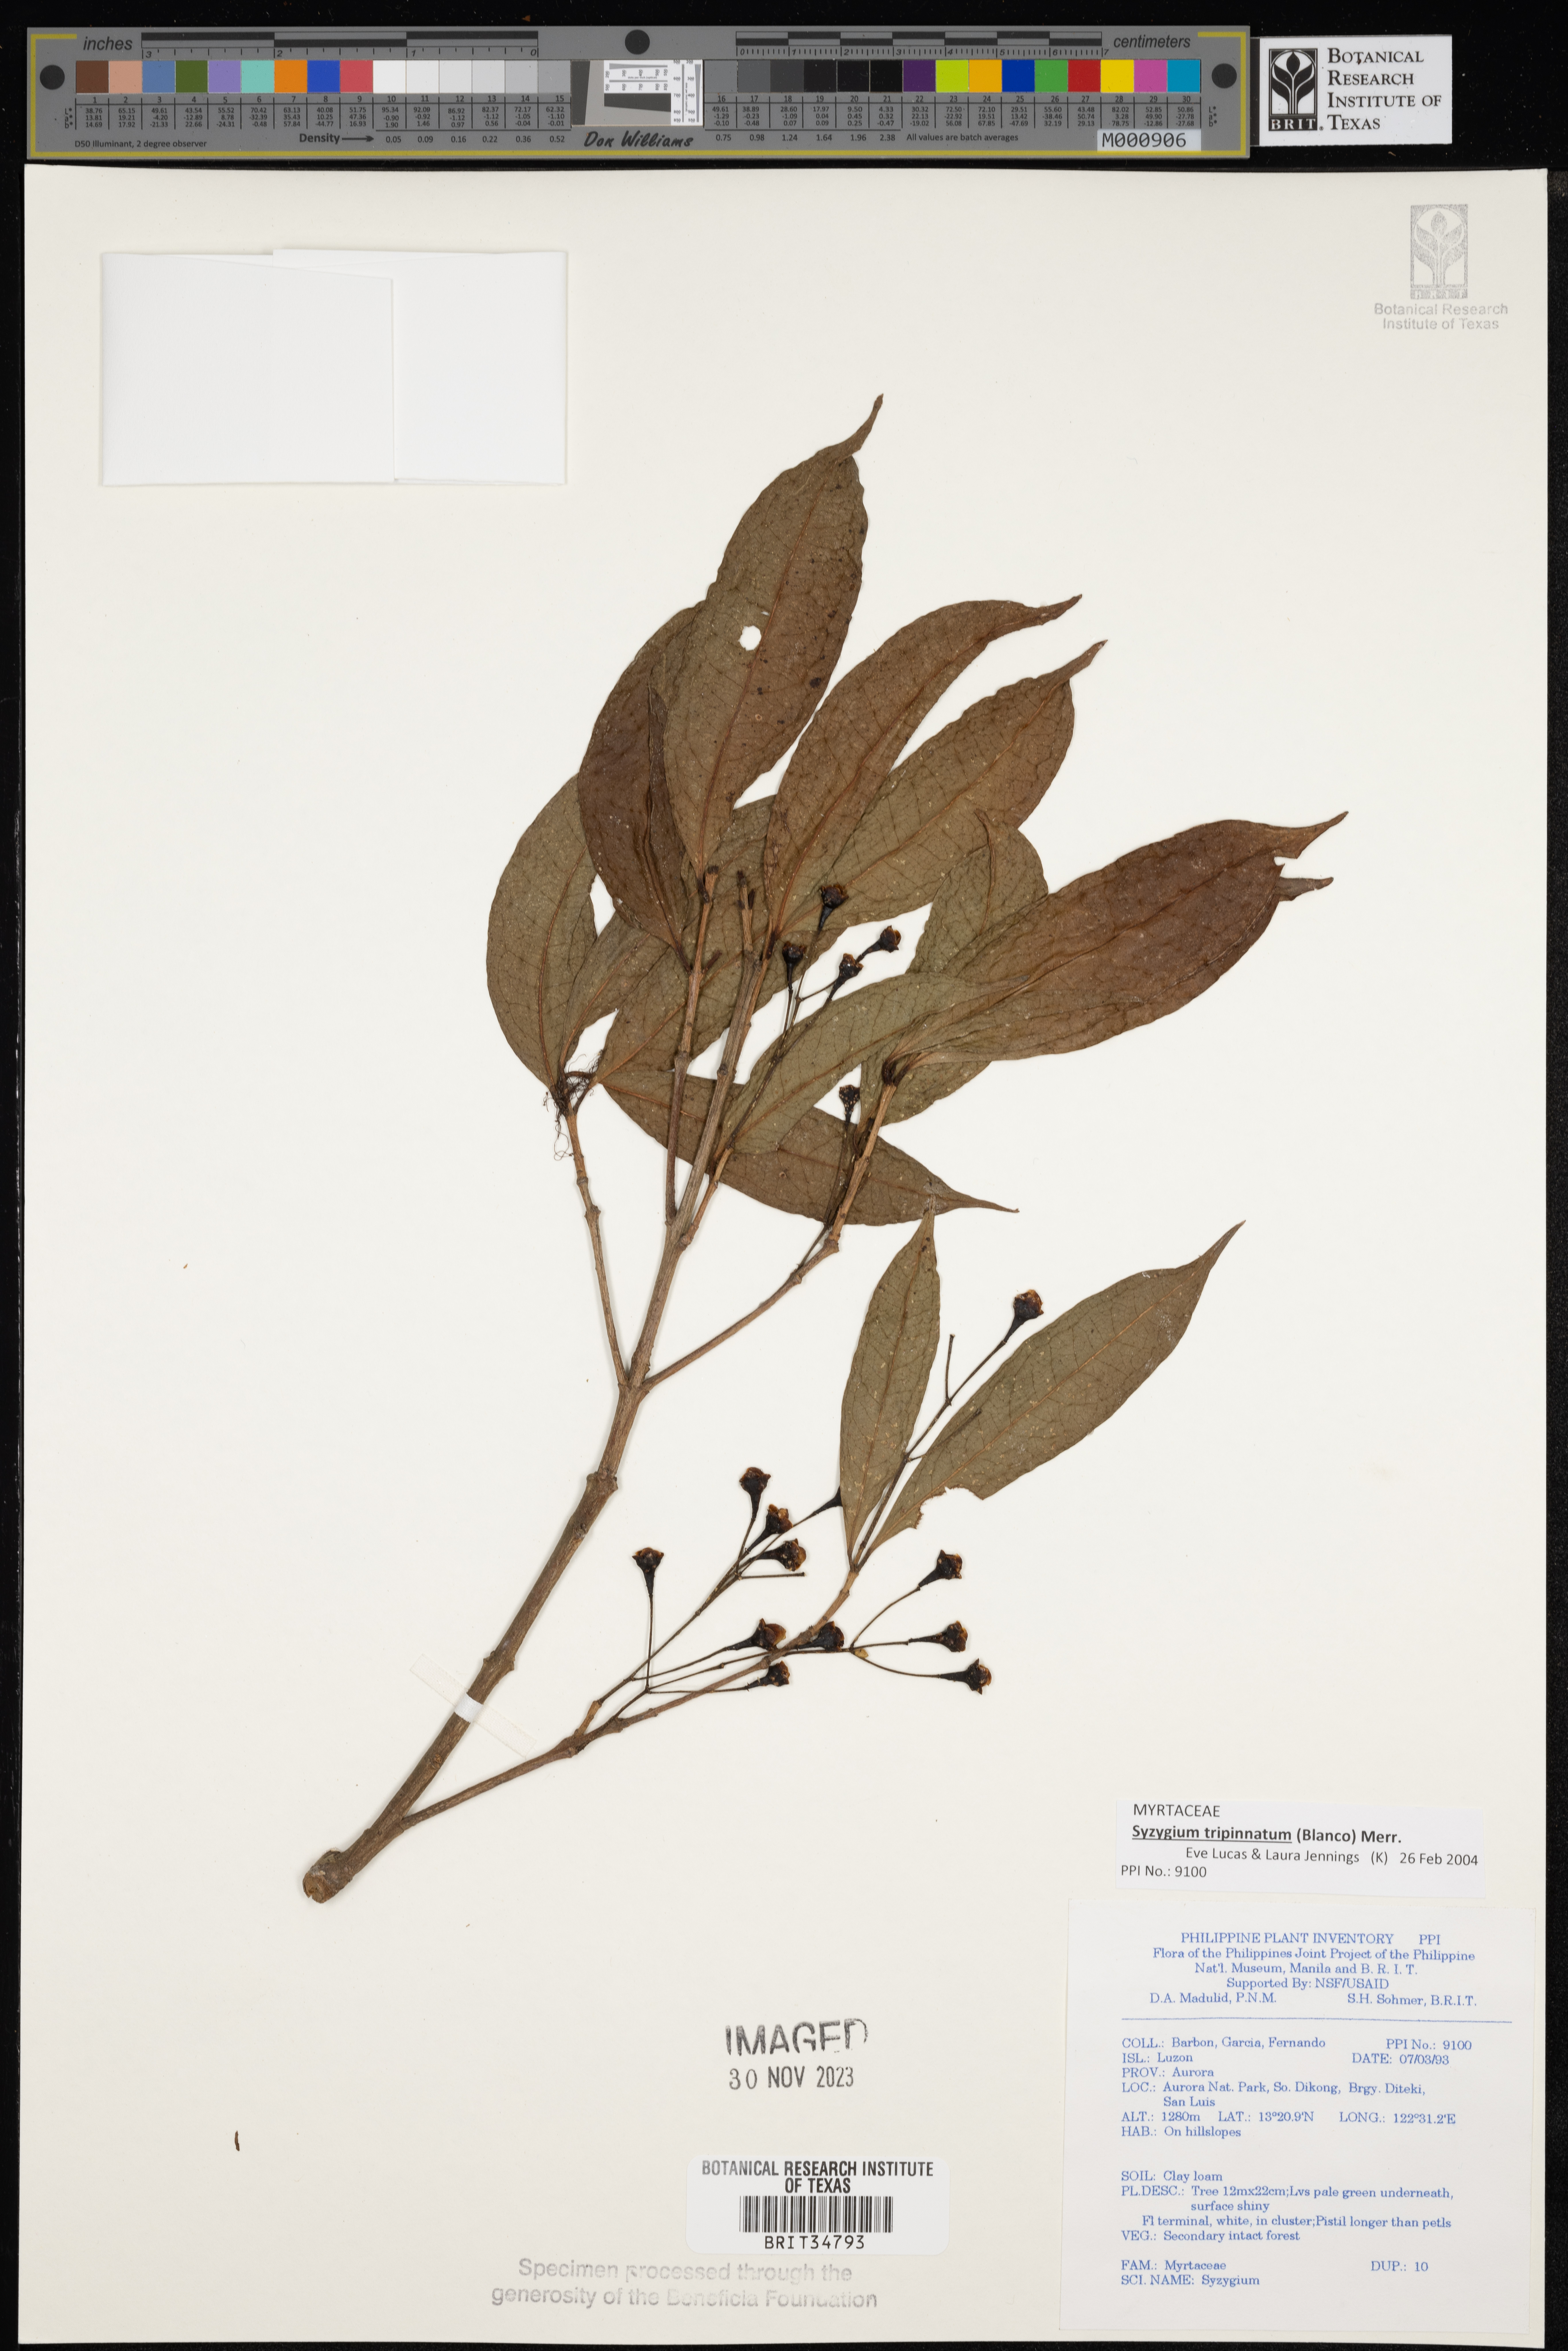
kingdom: Plantae
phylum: Tracheophyta
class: Magnoliopsida
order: Myrtales
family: Myrtaceae
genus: Syzygium
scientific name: Syzygium
